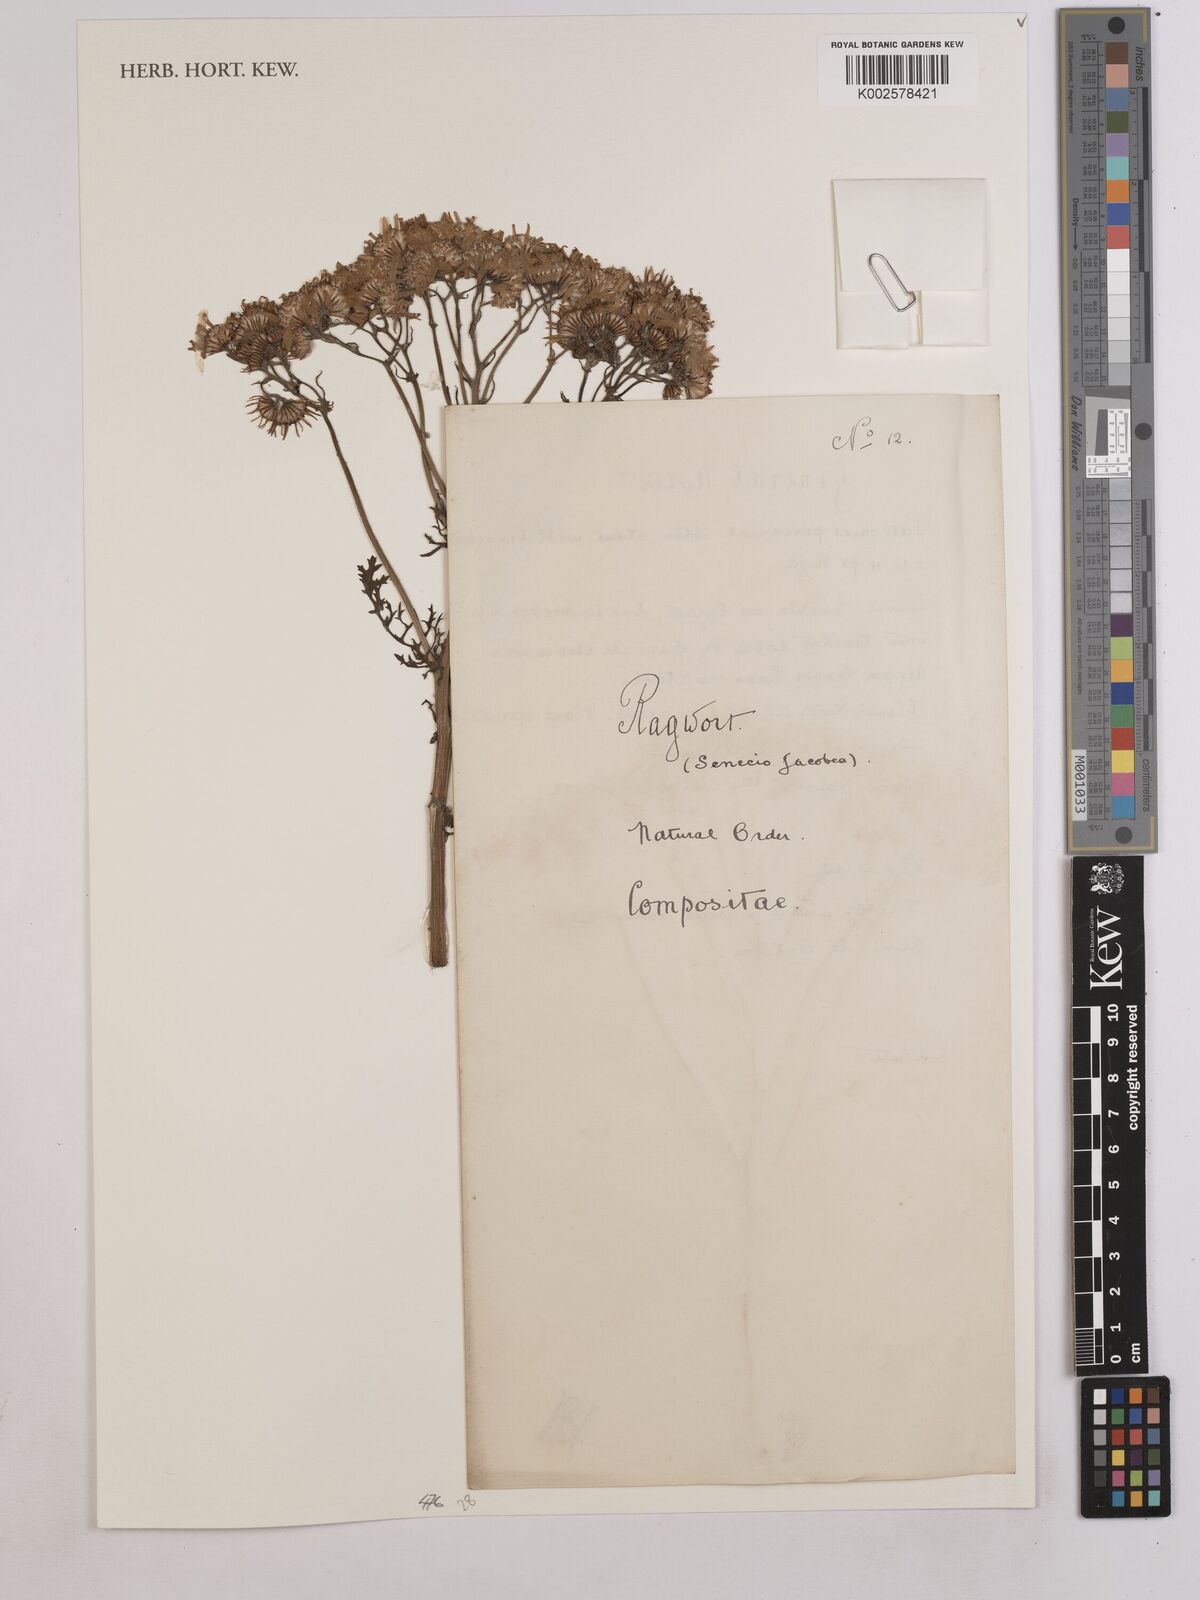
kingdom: Plantae
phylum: Tracheophyta
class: Magnoliopsida
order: Asterales
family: Asteraceae
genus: Senecio
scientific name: Senecio
